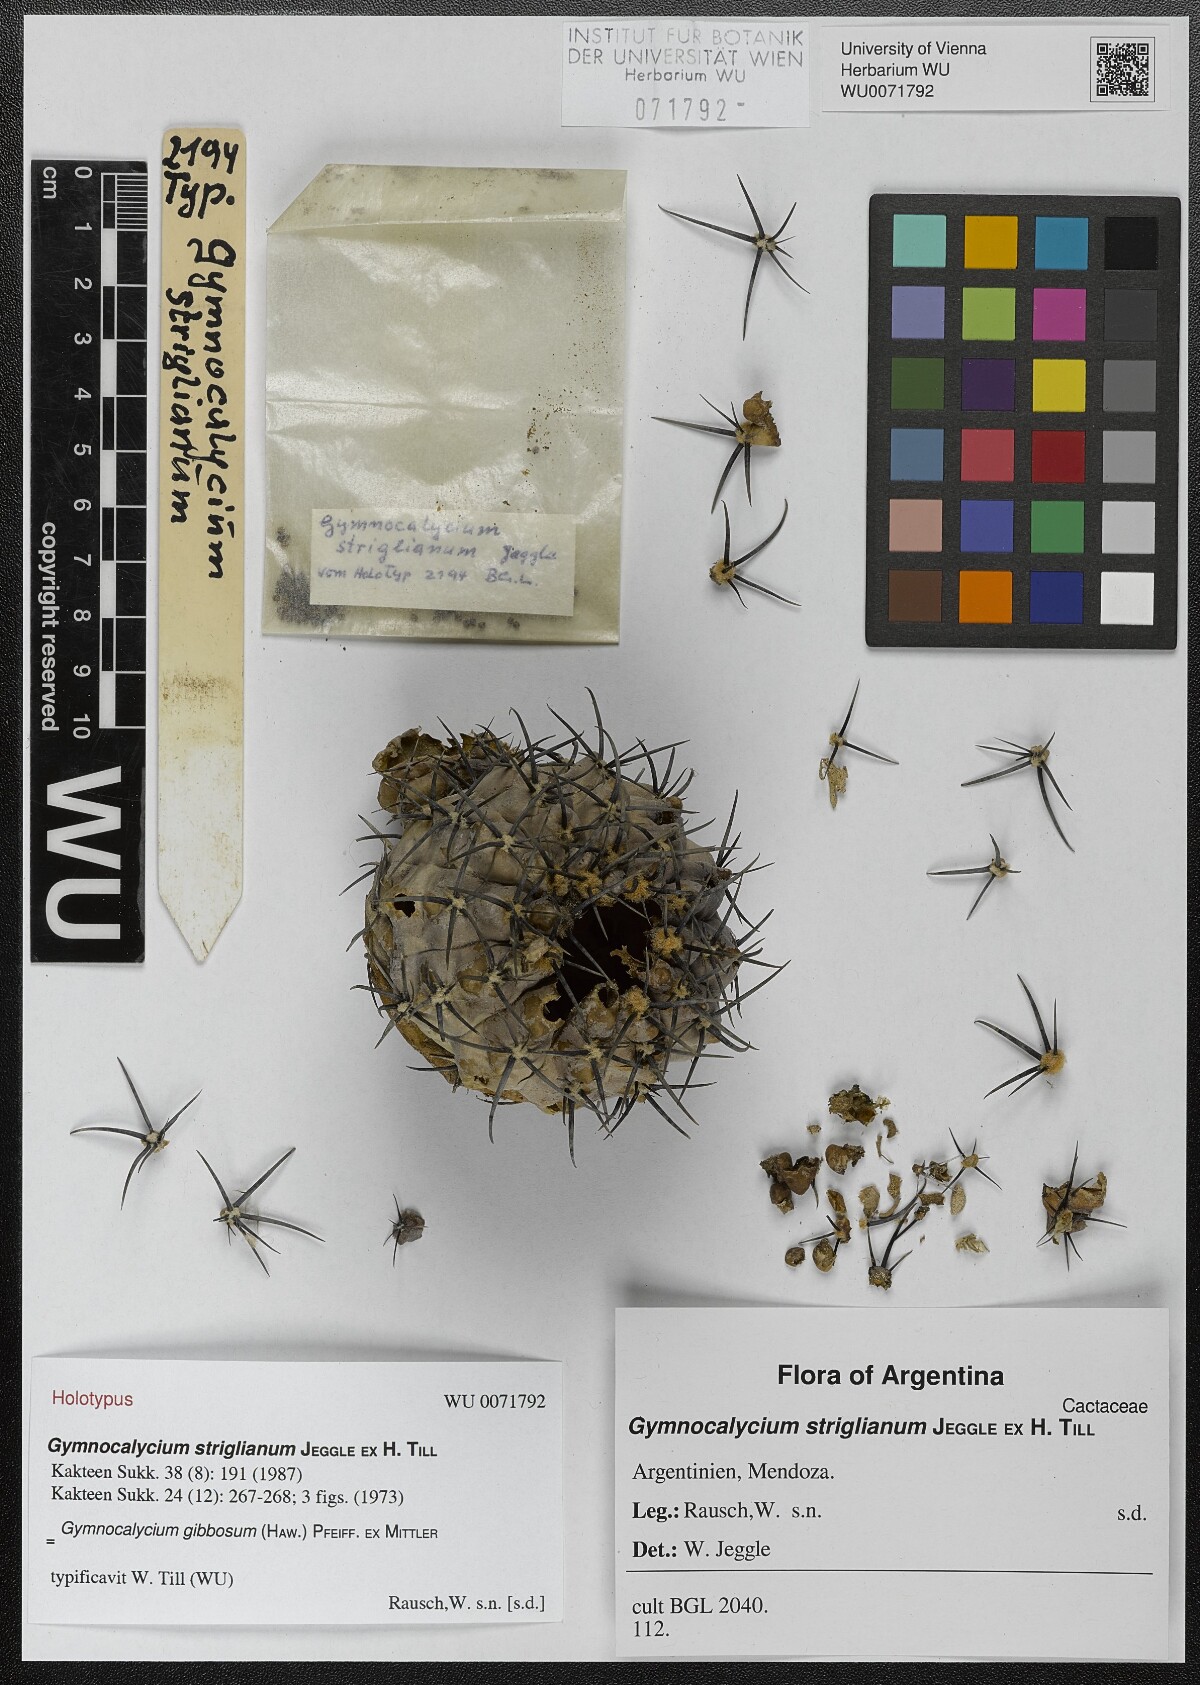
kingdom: Plantae
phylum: Tracheophyta
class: Magnoliopsida
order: Caryophyllales
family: Cactaceae
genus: Gymnocalycium
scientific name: Gymnocalycium striglianum
